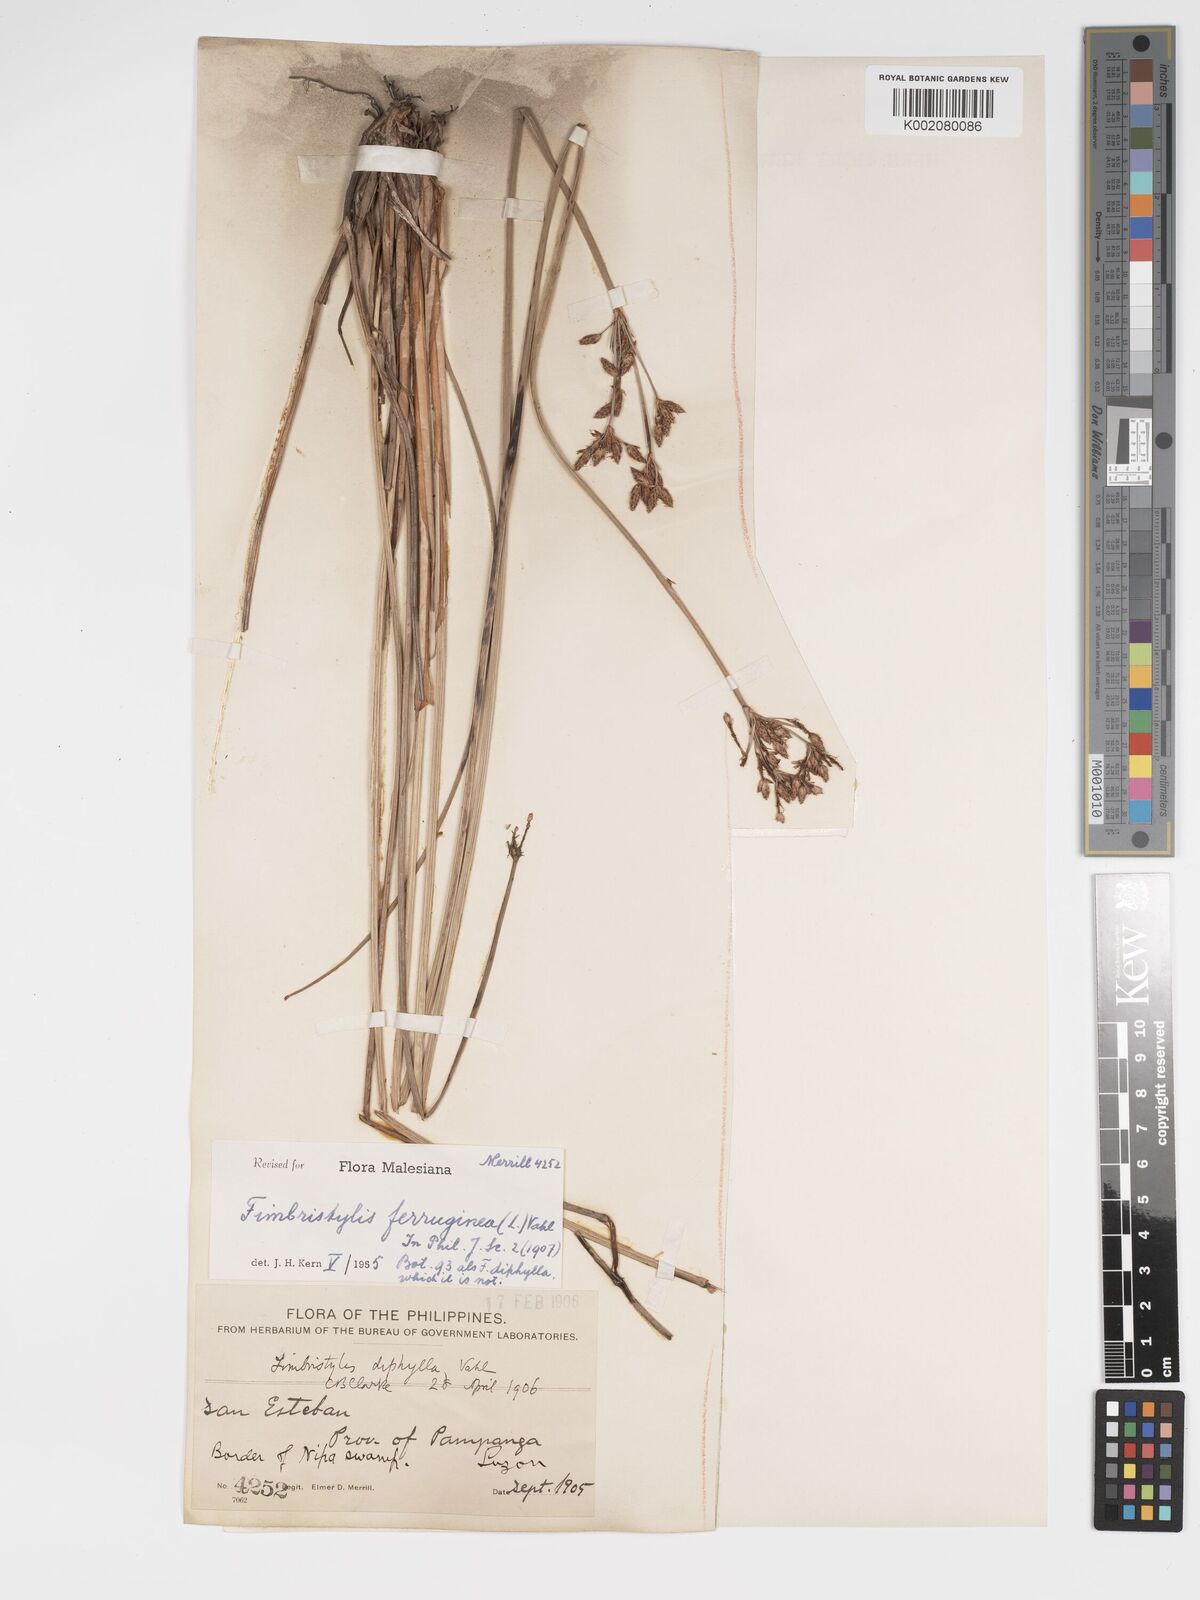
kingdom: Plantae
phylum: Tracheophyta
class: Liliopsida
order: Poales
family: Cyperaceae
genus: Fimbristylis
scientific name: Fimbristylis ferruginea
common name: West indian fimbry
